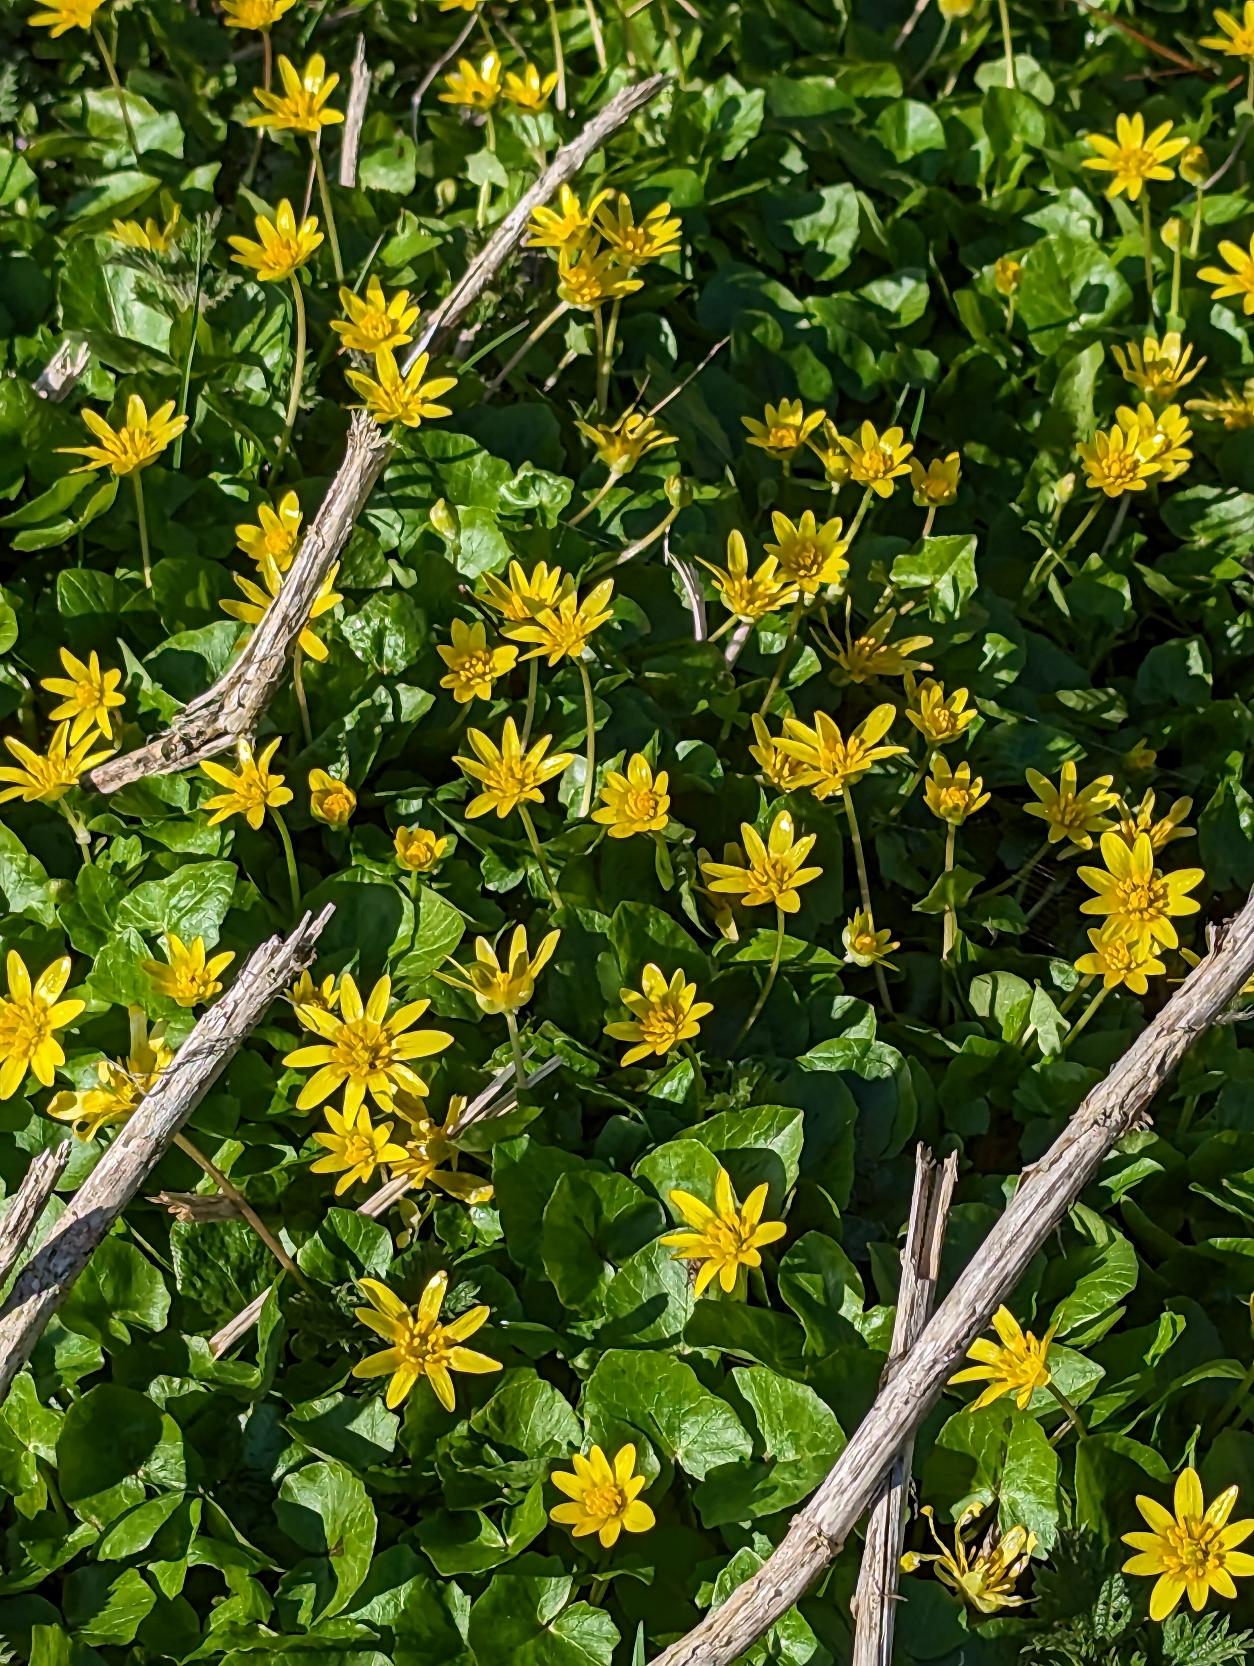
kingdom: Plantae
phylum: Tracheophyta
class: Magnoliopsida
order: Ranunculales
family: Ranunculaceae
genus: Ficaria
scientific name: Ficaria verna
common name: Vorterod
